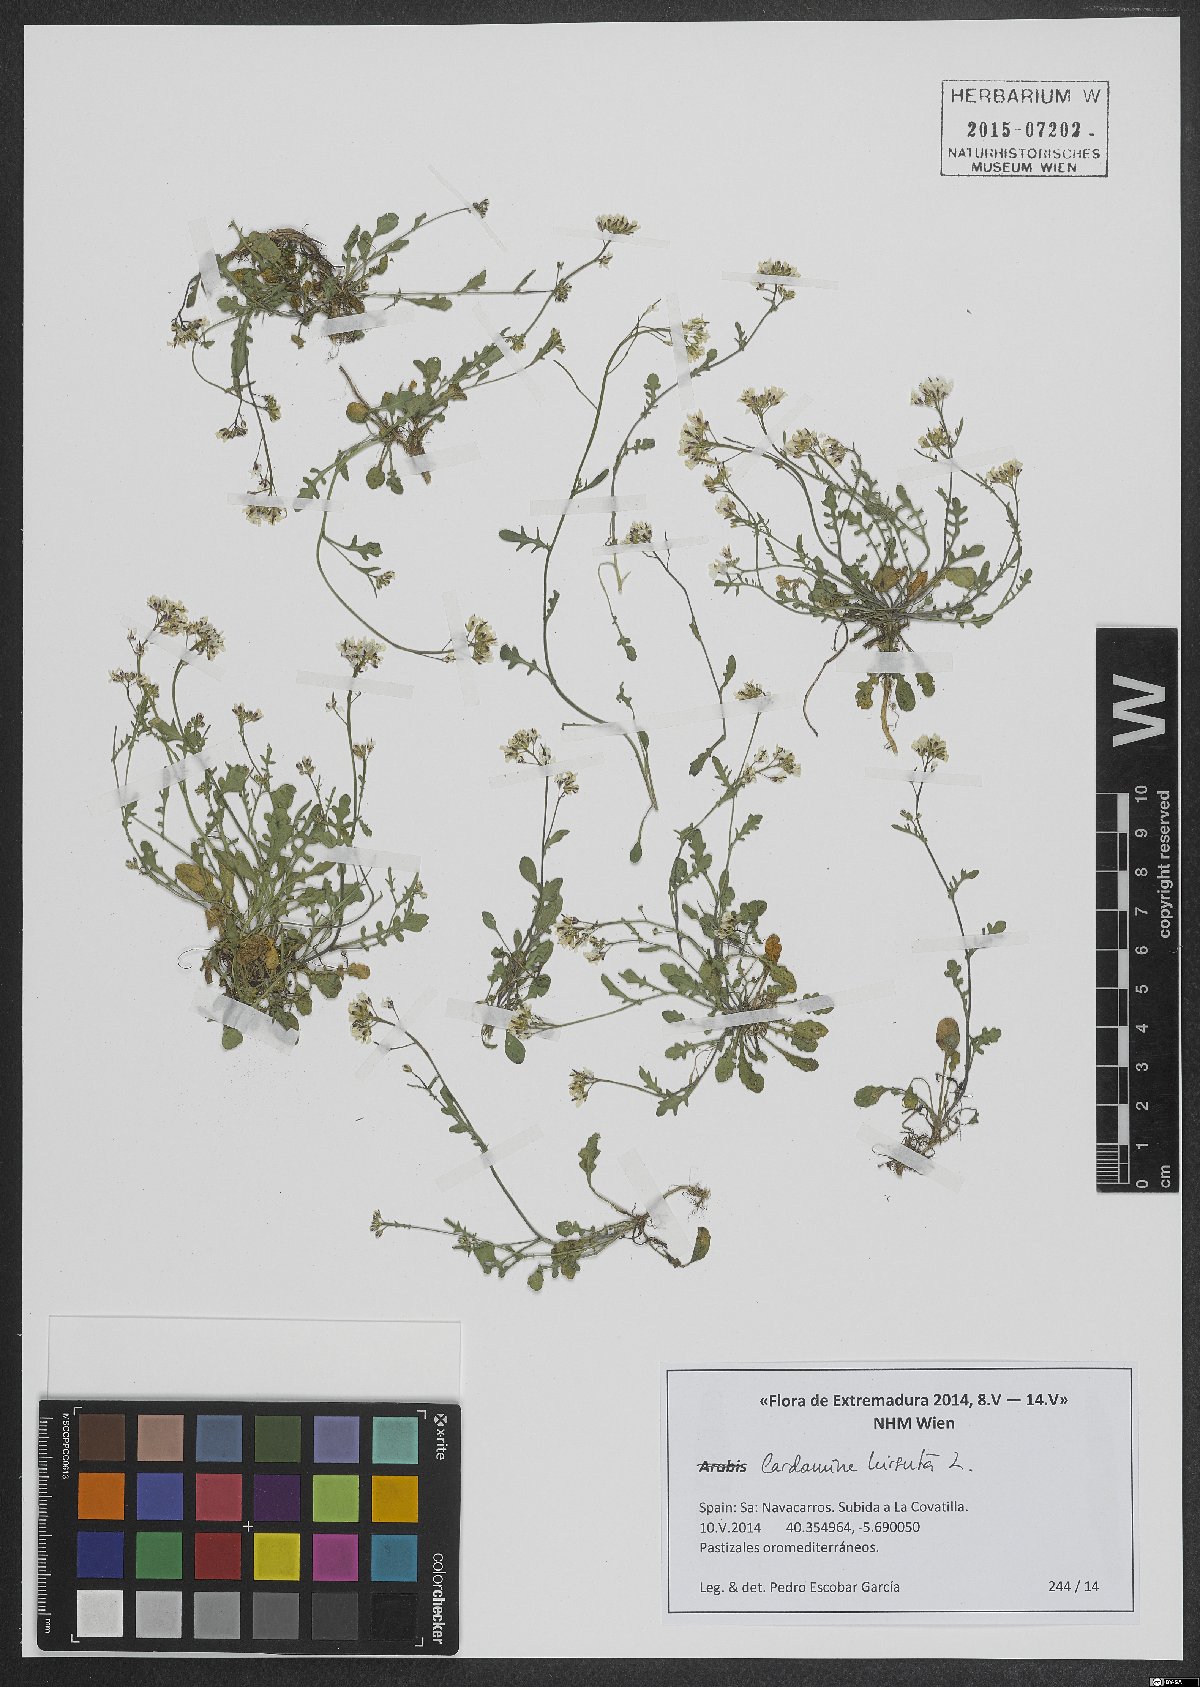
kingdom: Plantae
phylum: Tracheophyta
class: Magnoliopsida
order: Brassicales
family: Brassicaceae
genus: Cardamine
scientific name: Cardamine hirsuta
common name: Hairy bittercress
